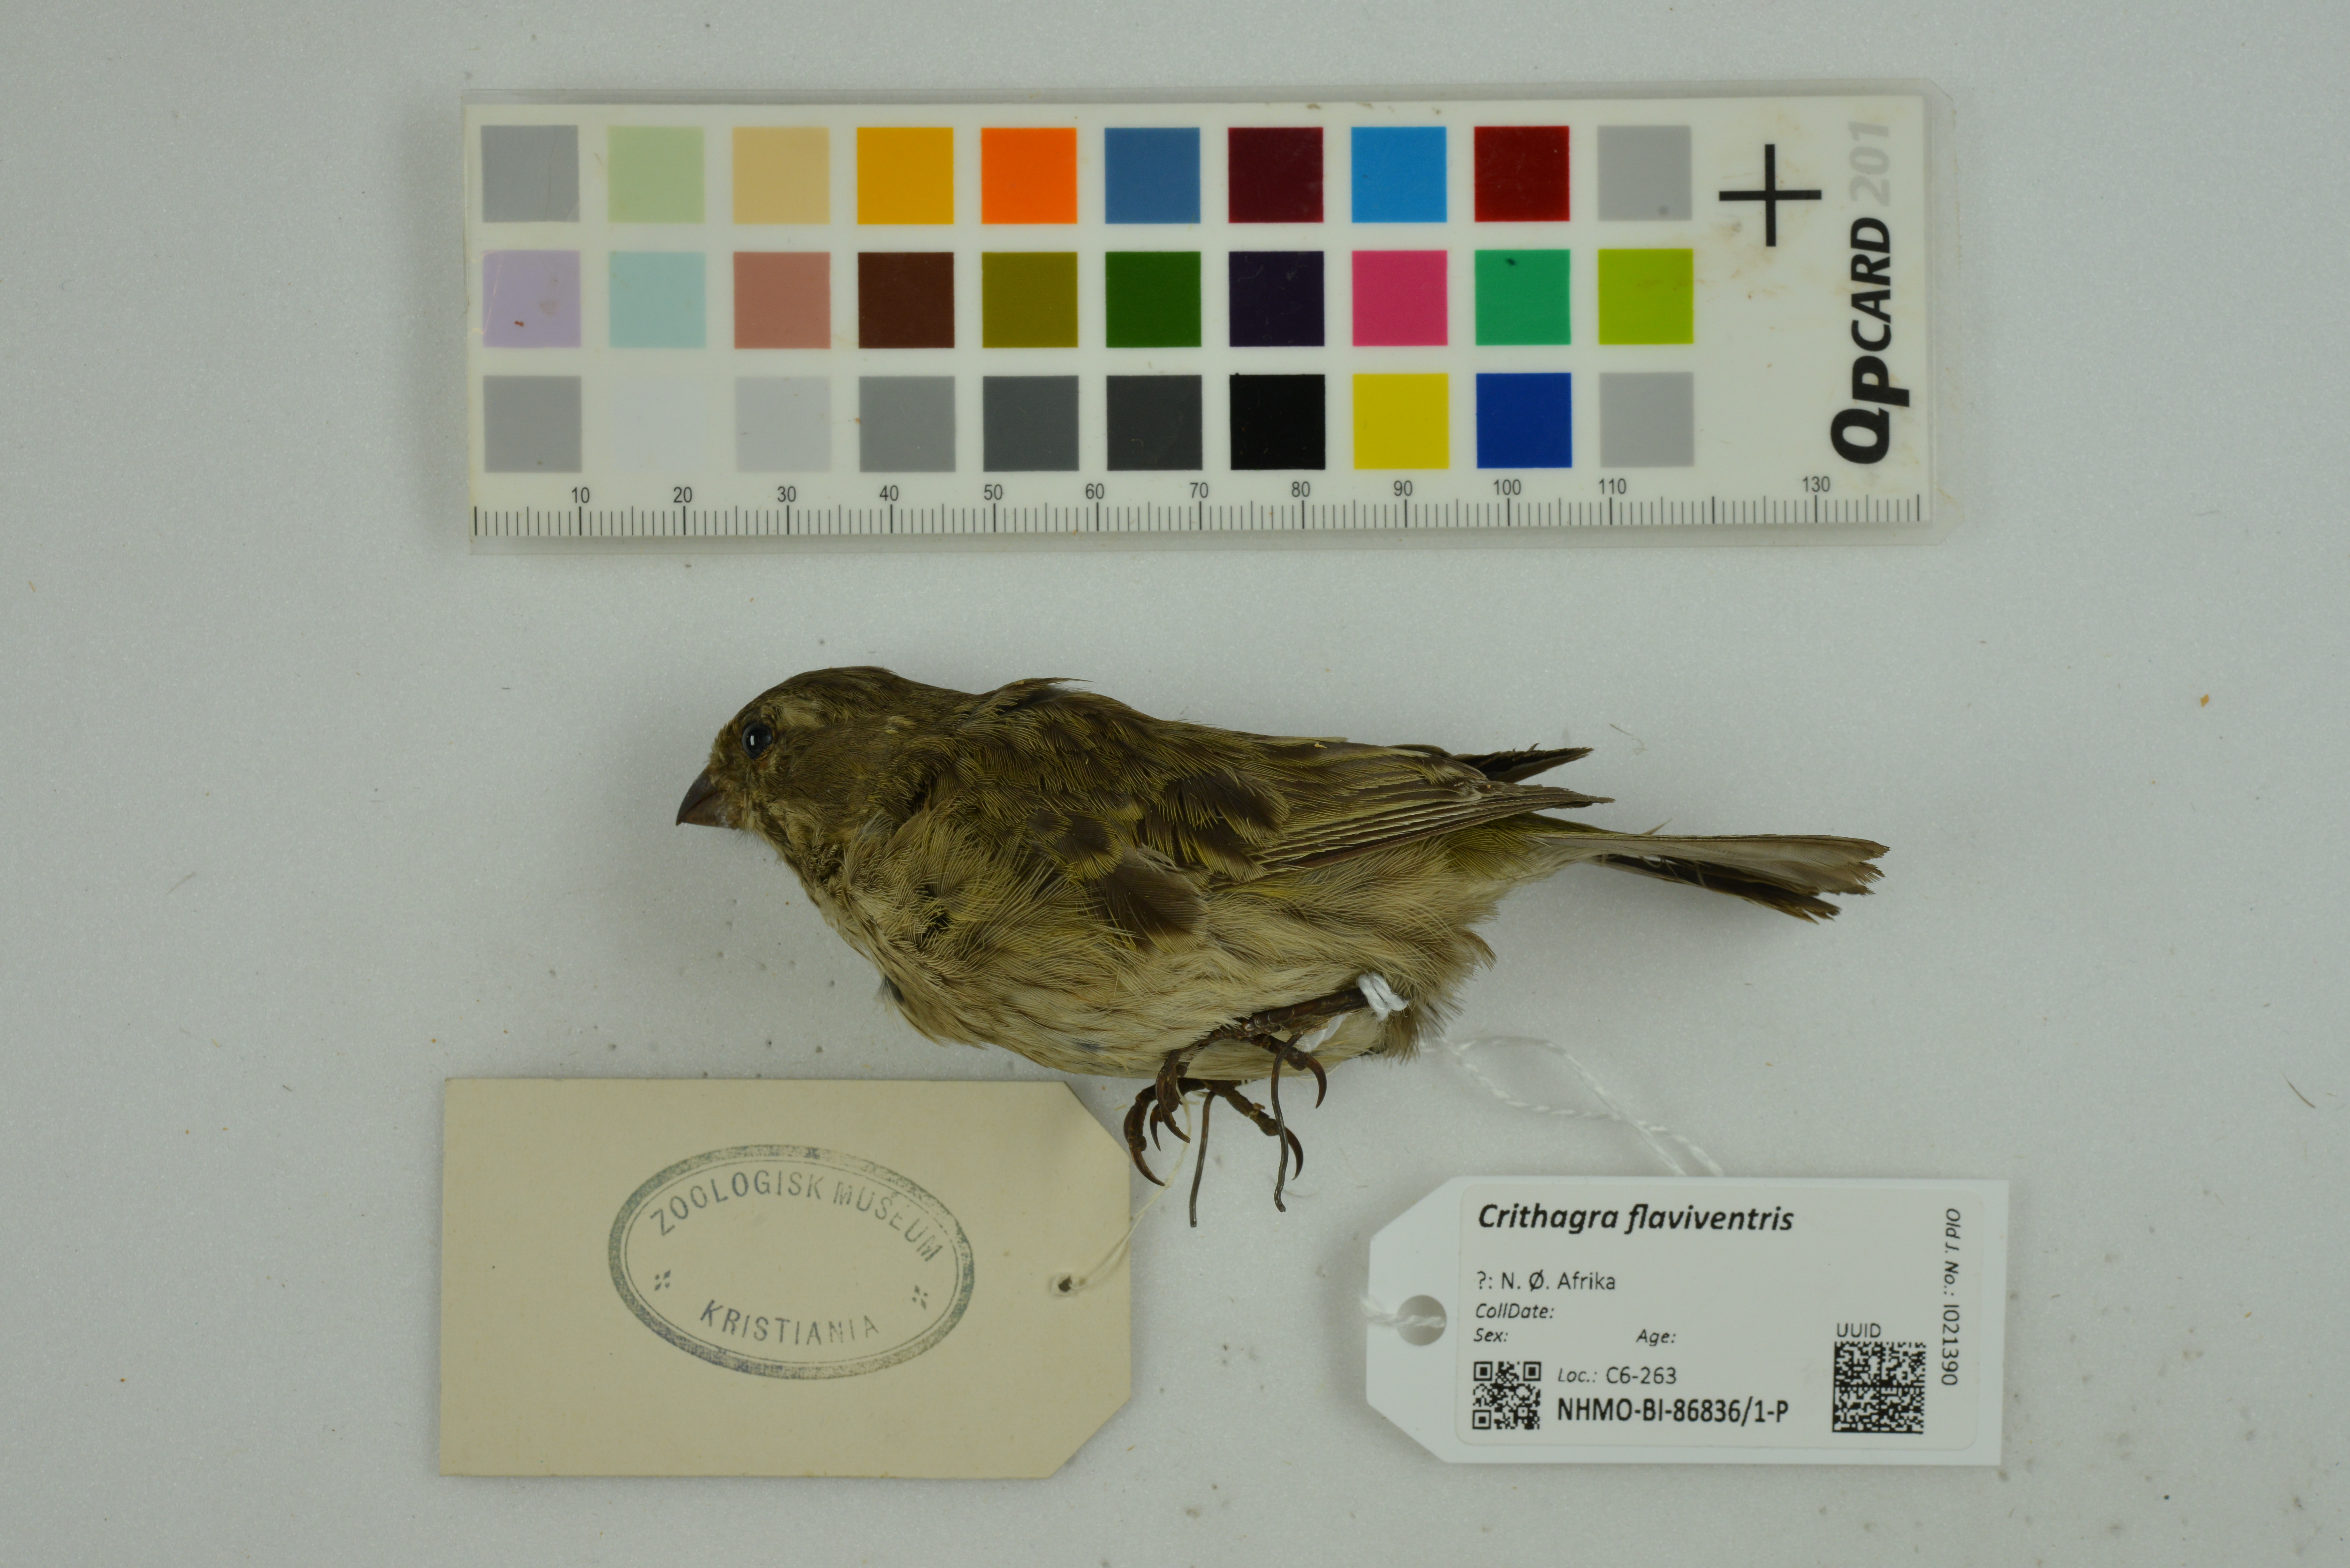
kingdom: Animalia
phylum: Chordata
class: Aves
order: Passeriformes
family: Fringillidae
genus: Crithagra
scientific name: Crithagra flaviventris
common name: Yellow canary
